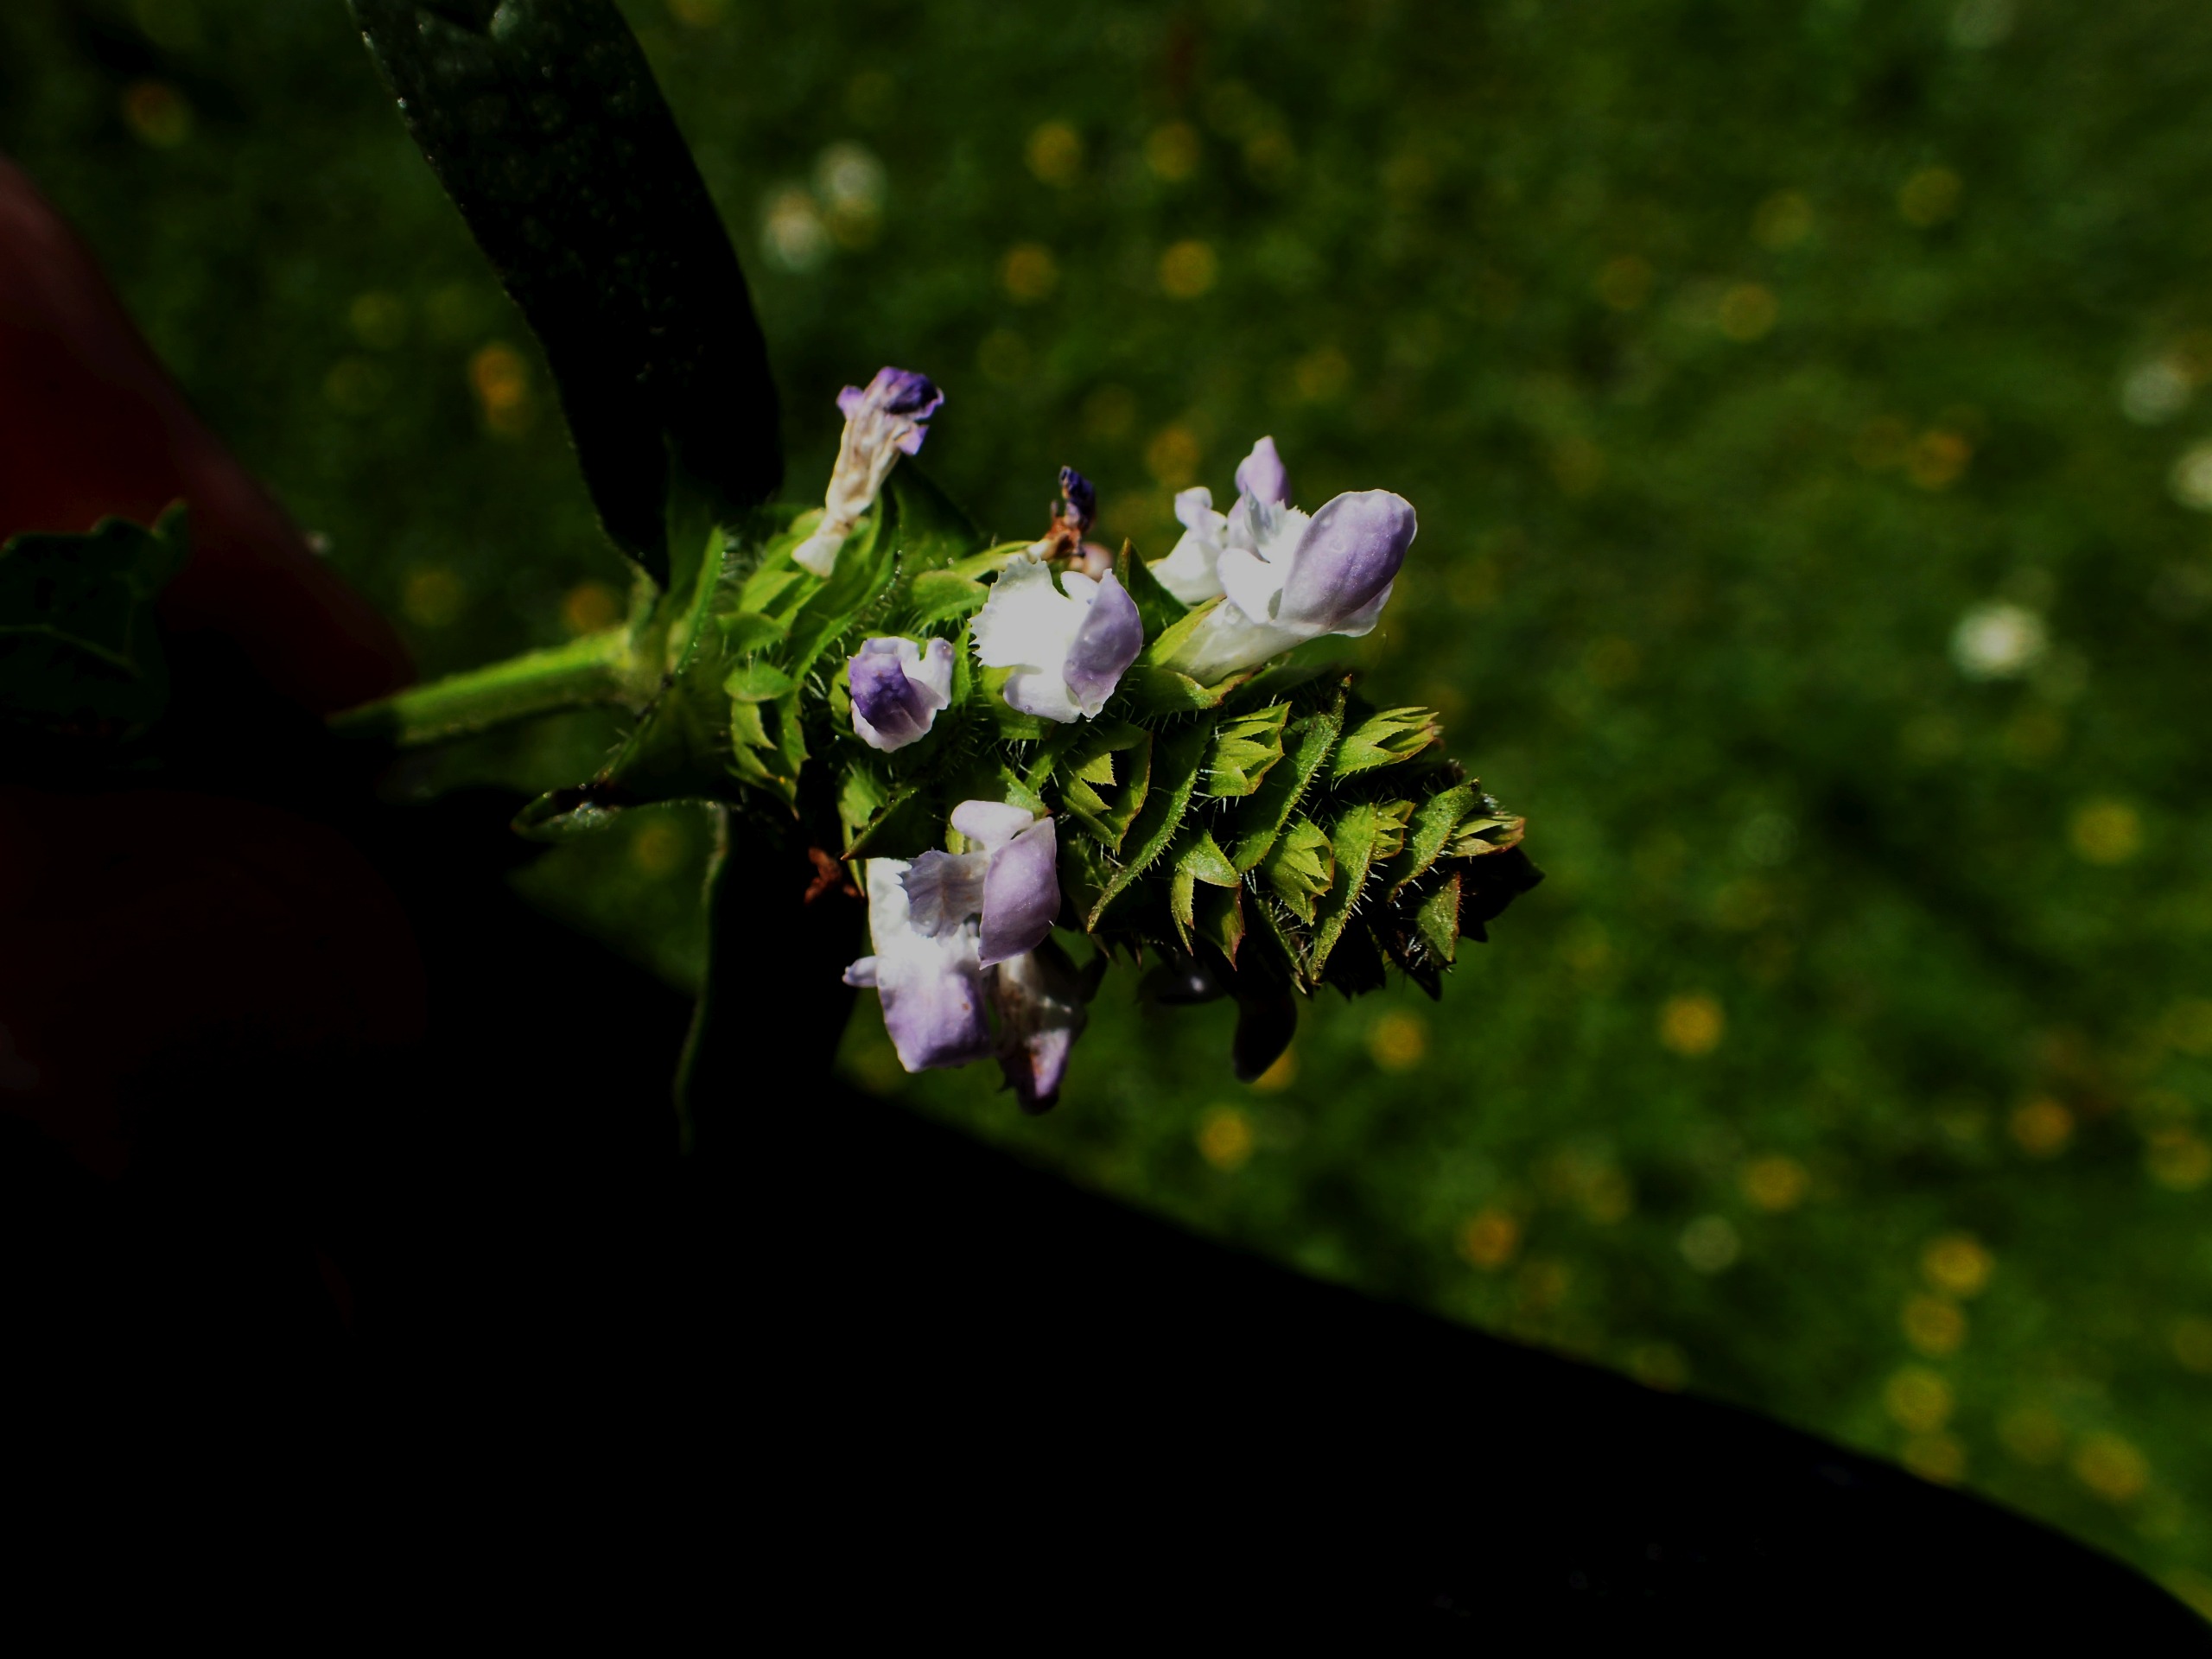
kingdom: Plantae
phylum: Tracheophyta
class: Magnoliopsida
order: Lamiales
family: Lamiaceae
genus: Prunella
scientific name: Prunella vulgaris
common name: Almindelig brunelle
